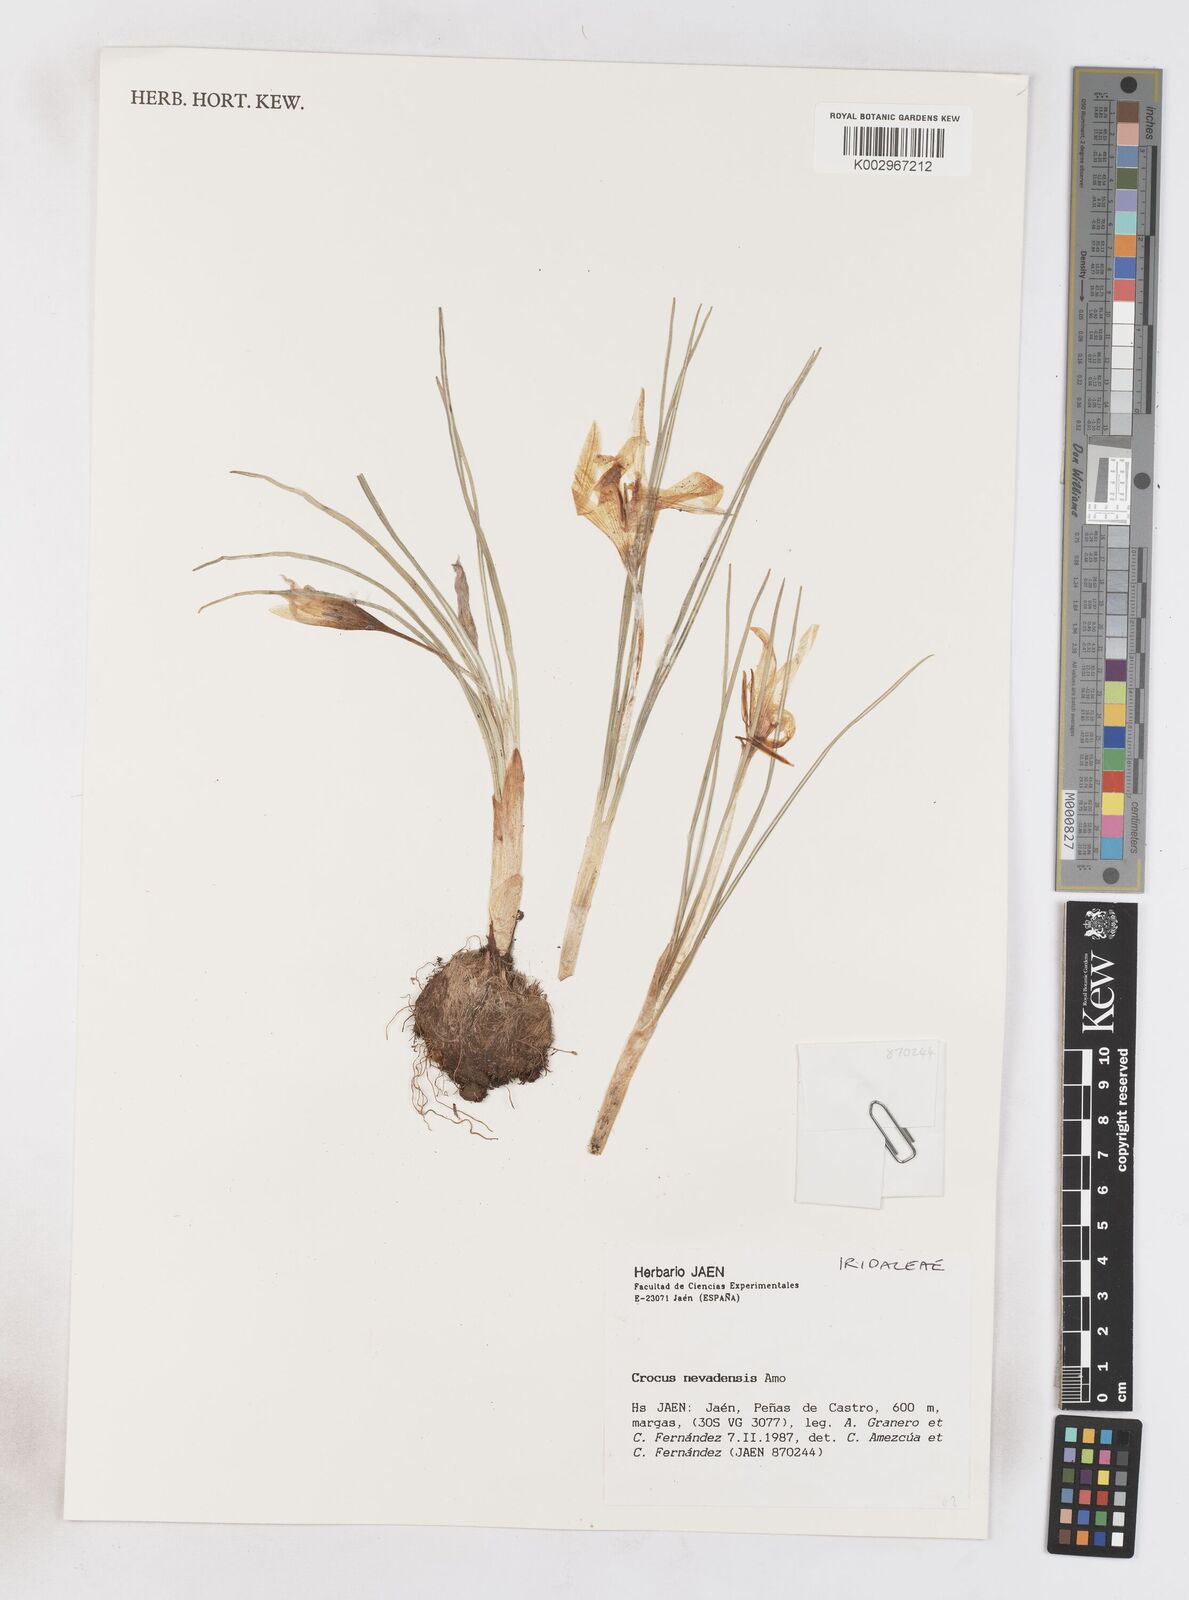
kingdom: Plantae
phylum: Tracheophyta
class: Liliopsida
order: Asparagales
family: Iridaceae
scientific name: Iridaceae
